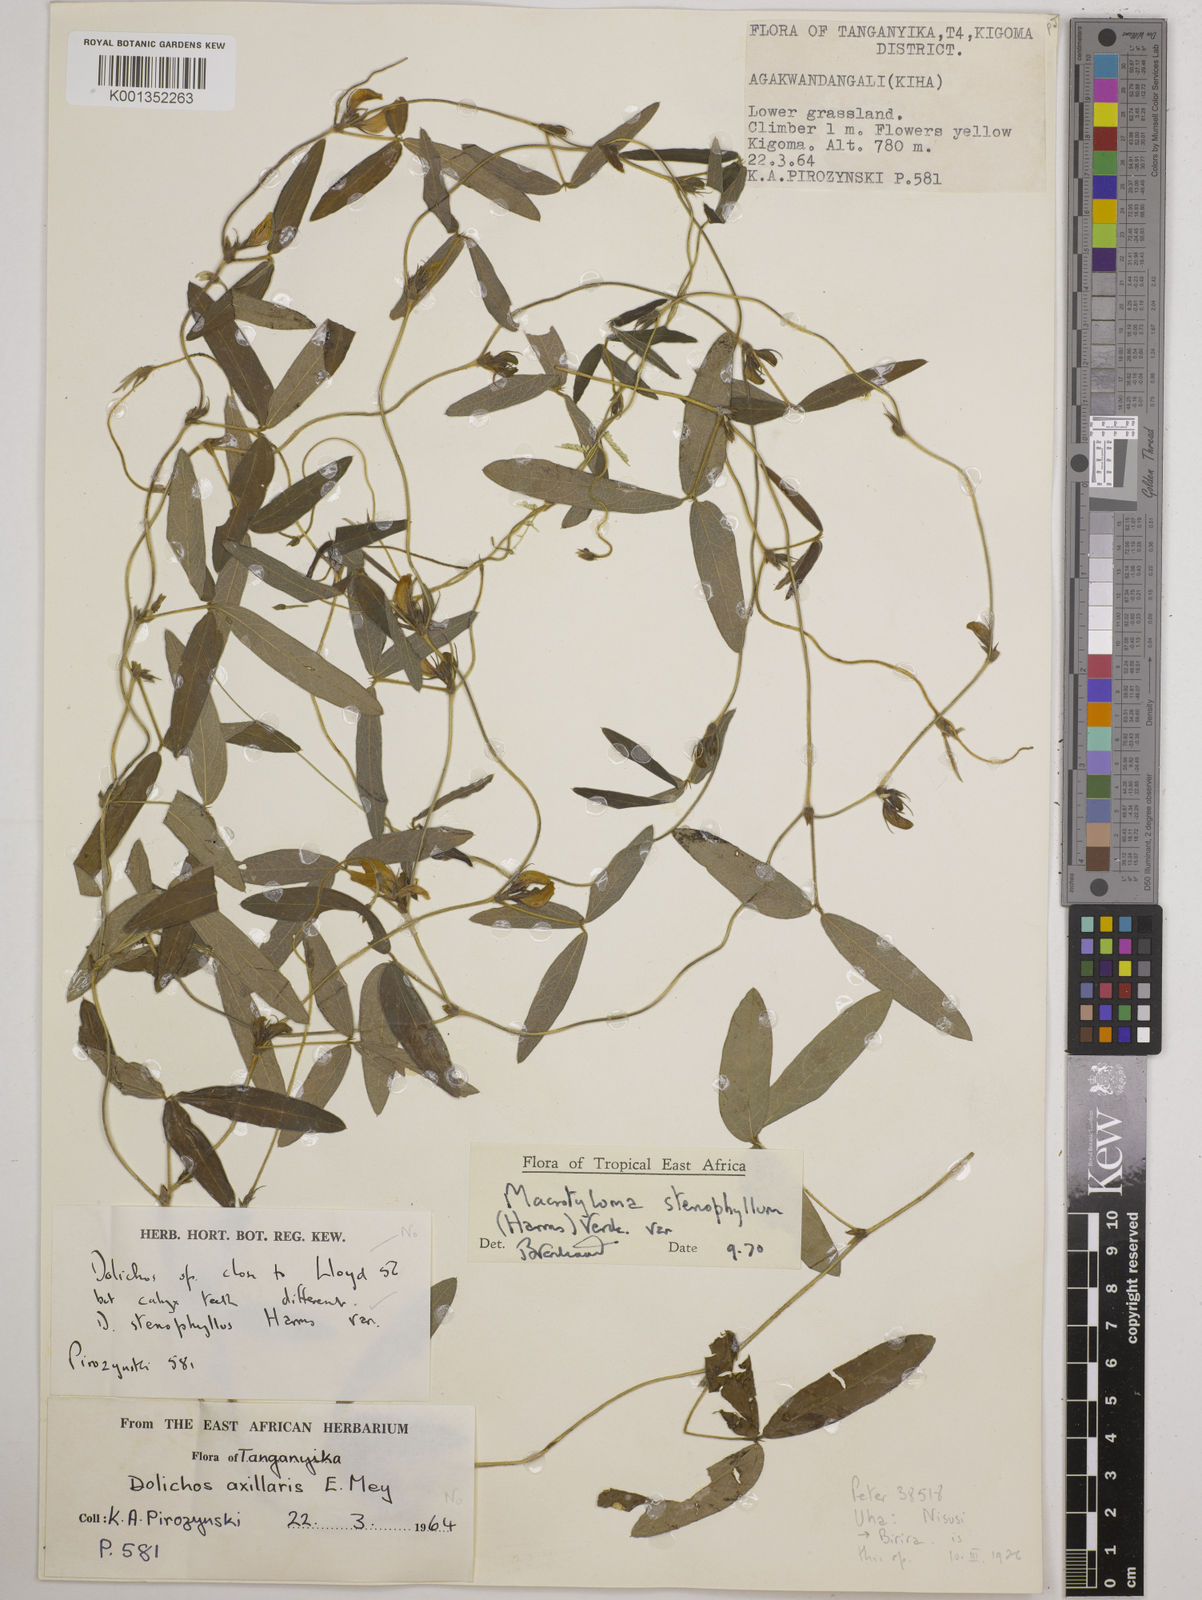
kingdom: Plantae
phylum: Tracheophyta
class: Magnoliopsida
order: Fabales
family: Fabaceae
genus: Macrotyloma
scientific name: Macrotyloma stenophyllum
